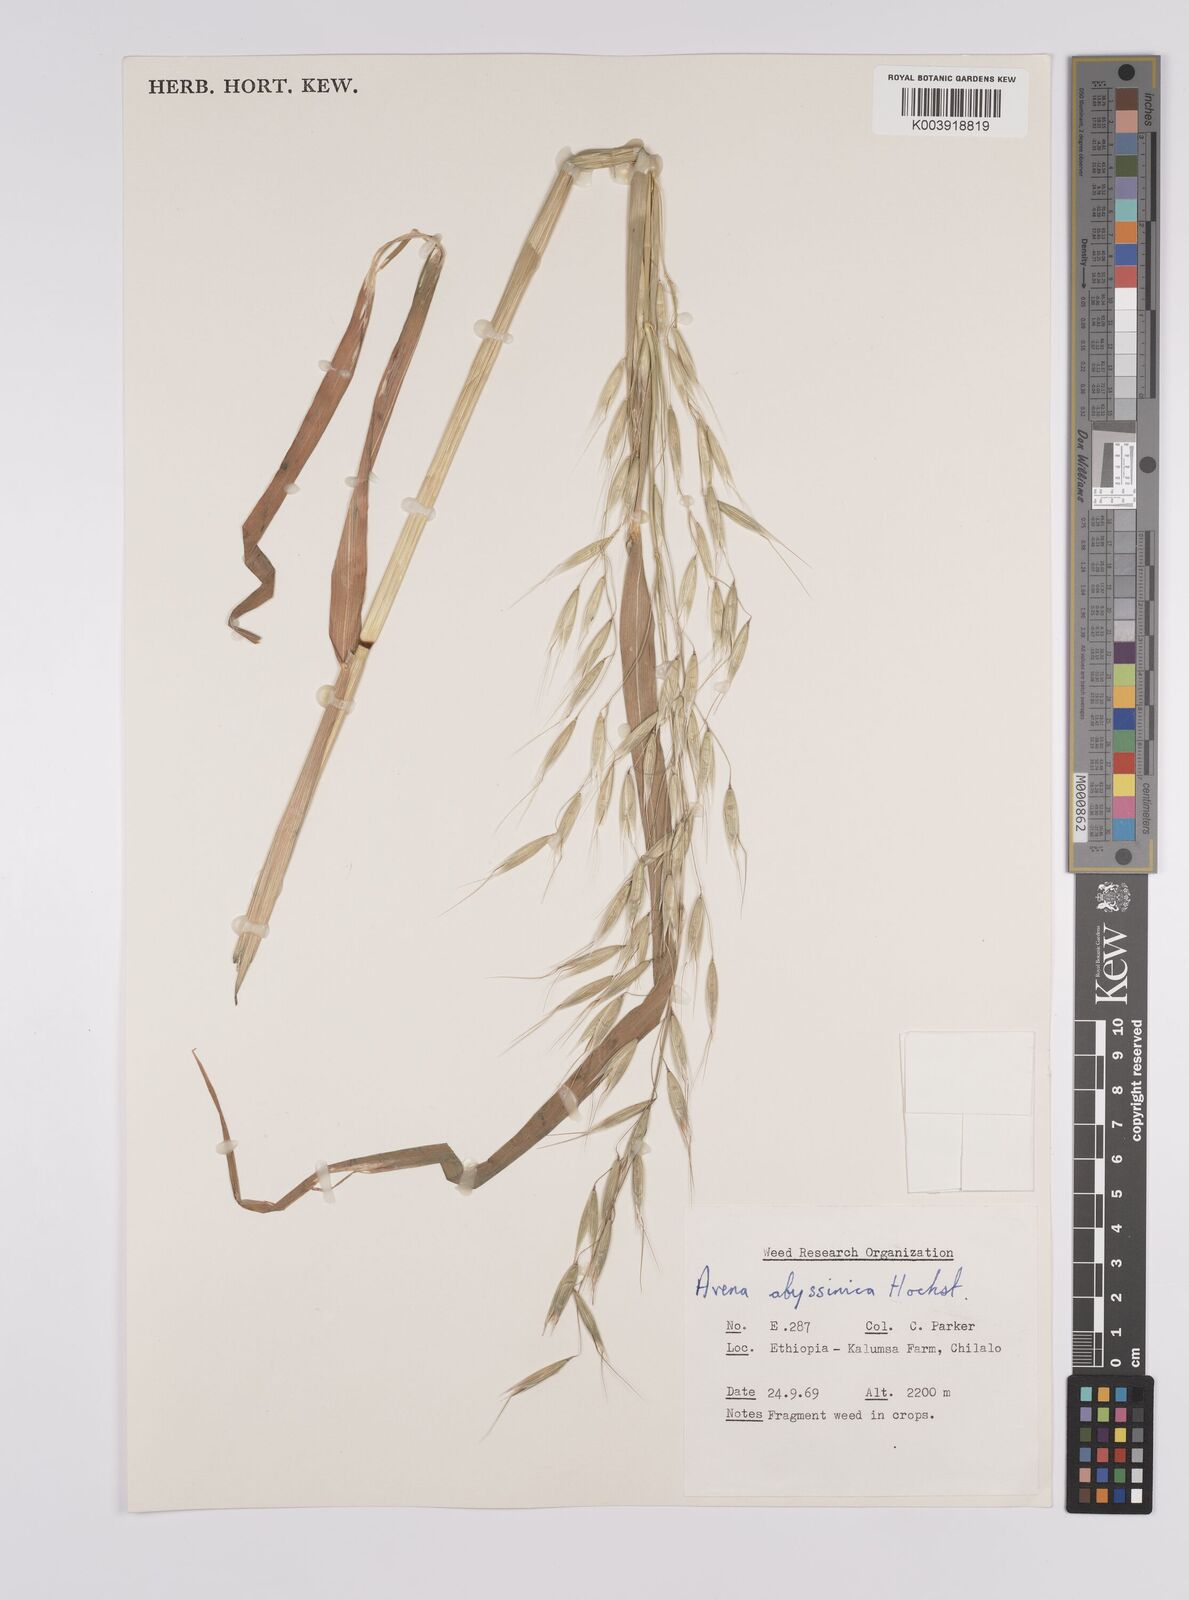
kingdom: Plantae
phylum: Tracheophyta
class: Liliopsida
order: Poales
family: Poaceae
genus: Avena
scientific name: Avena abyssinica
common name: Ethiopian oat
